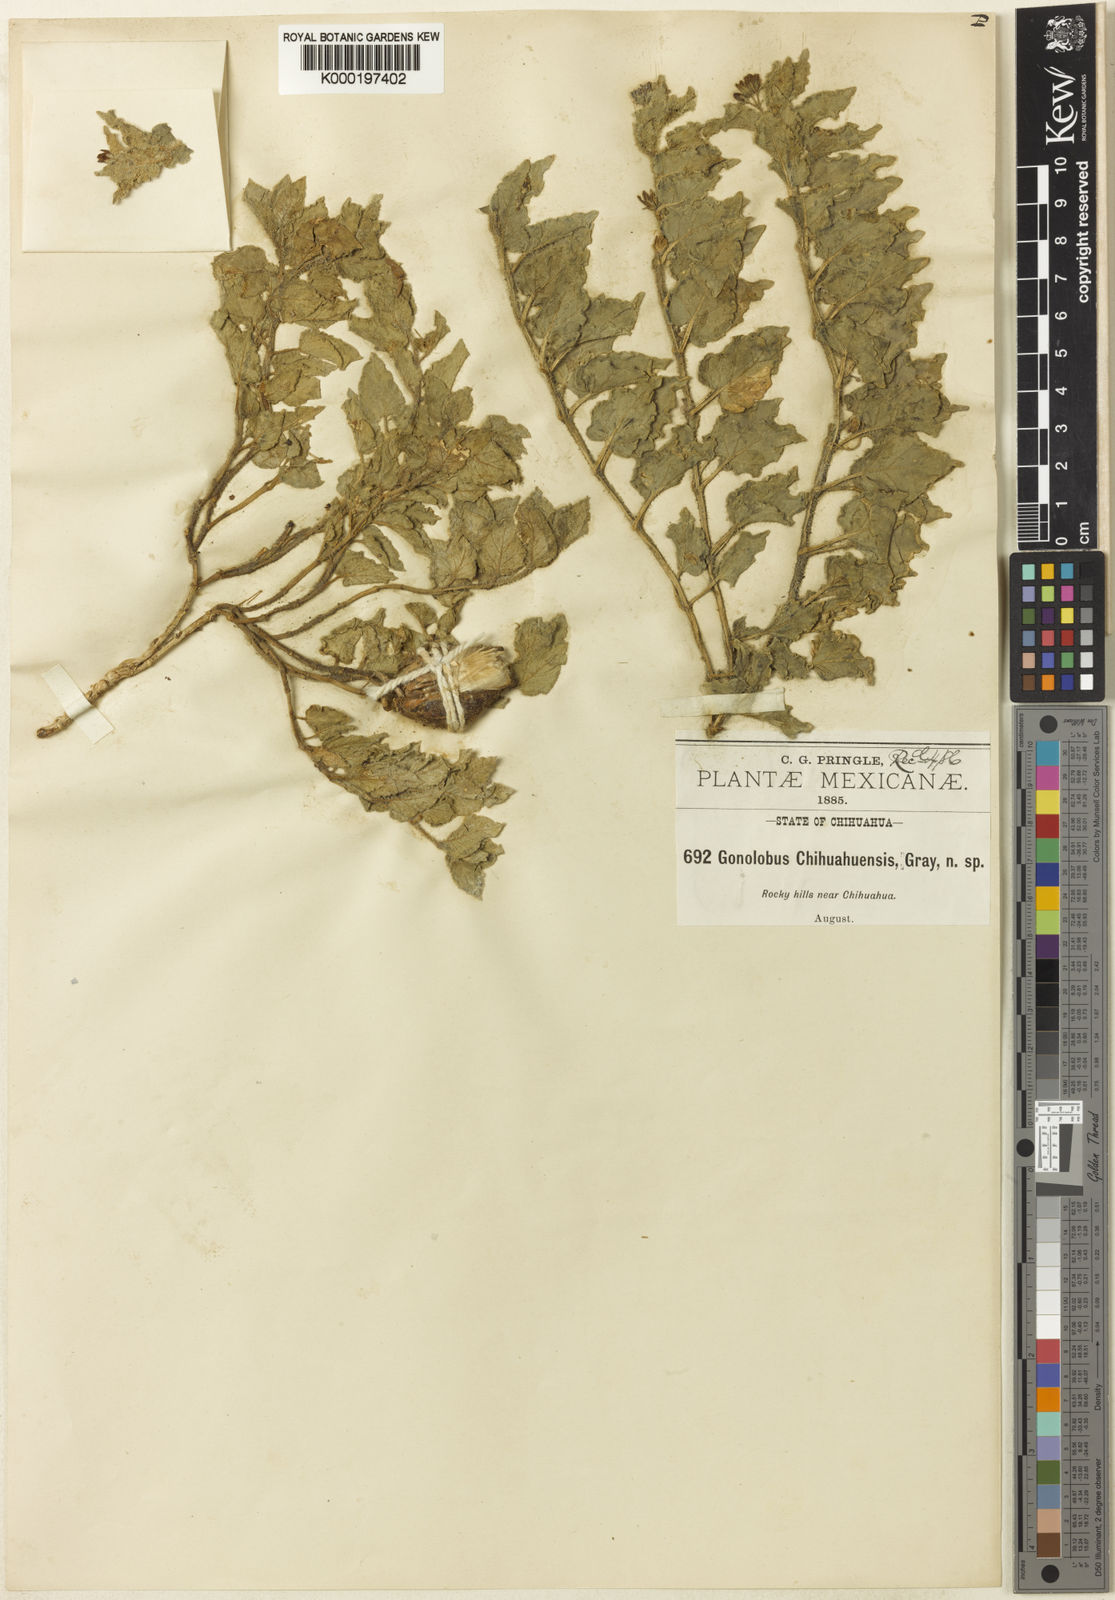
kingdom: Plantae
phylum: Tracheophyta
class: Magnoliopsida
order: Gentianales
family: Apocynaceae
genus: Matelea
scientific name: Matelea chihuahuensis
